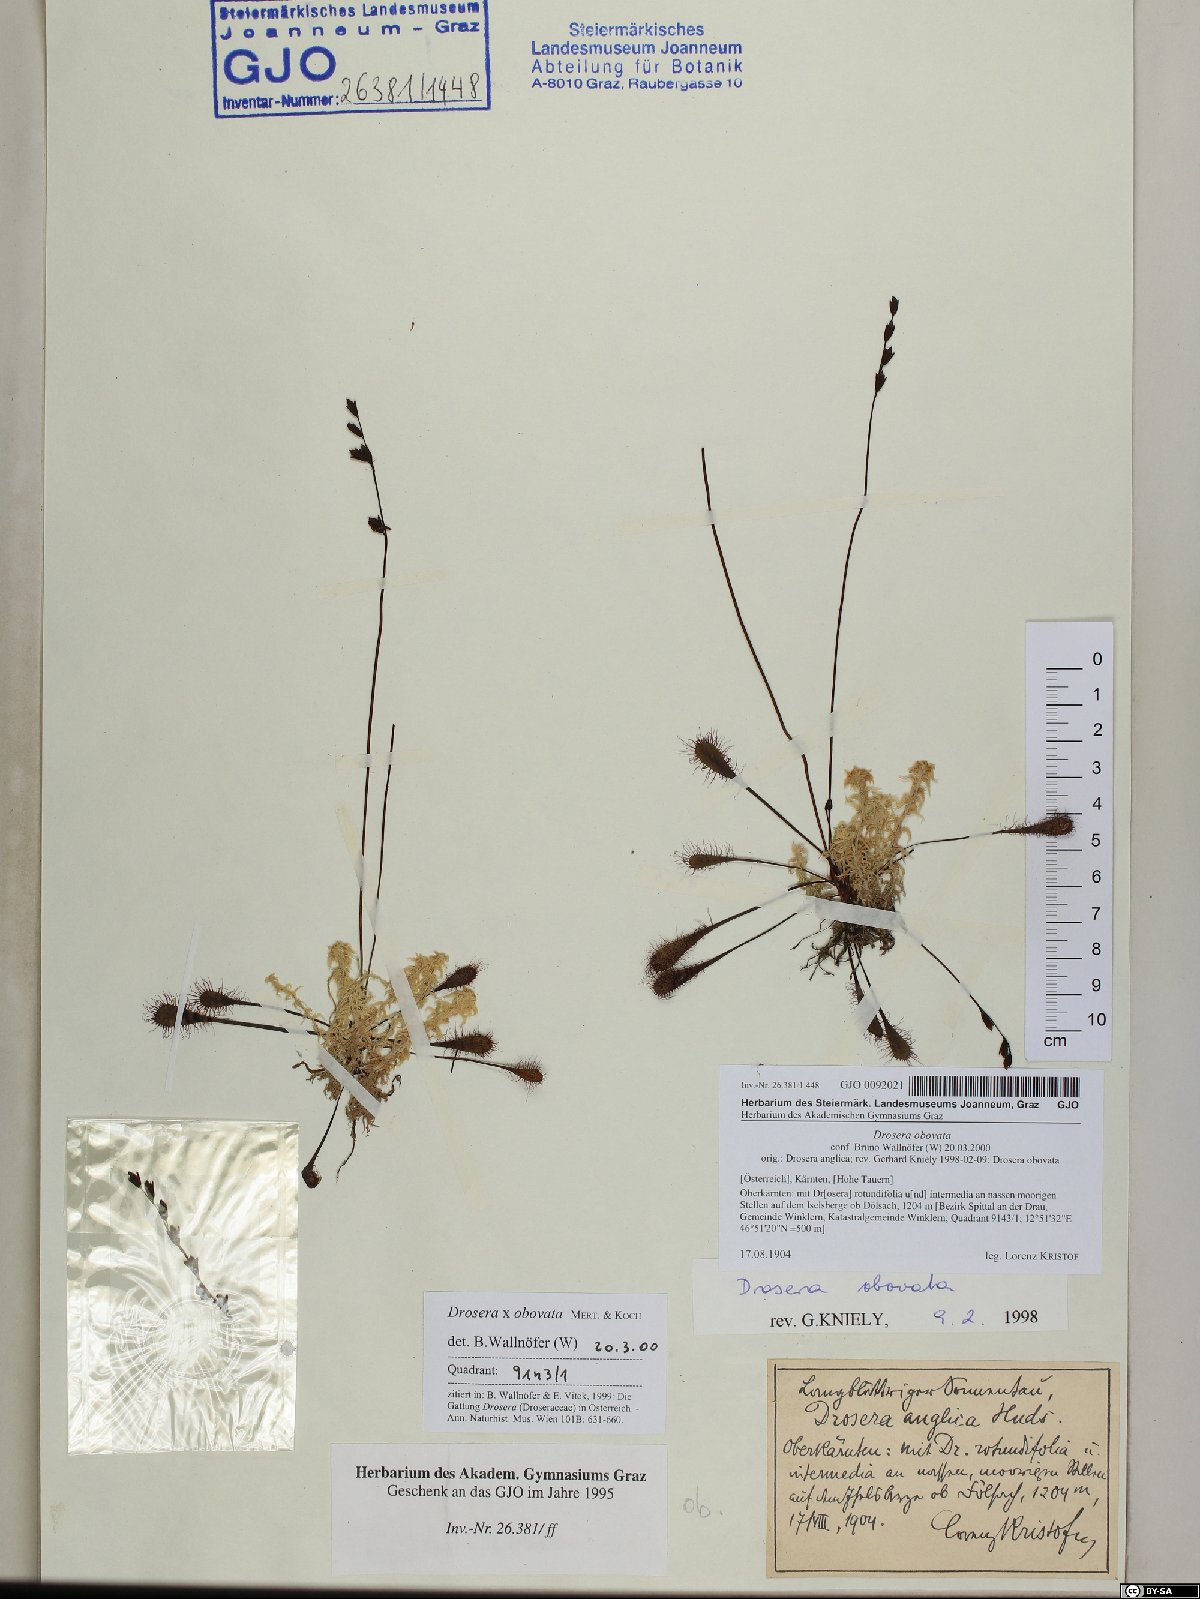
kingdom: Plantae
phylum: Tracheophyta
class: Magnoliopsida
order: Caryophyllales
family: Droseraceae
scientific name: Droseraceae
